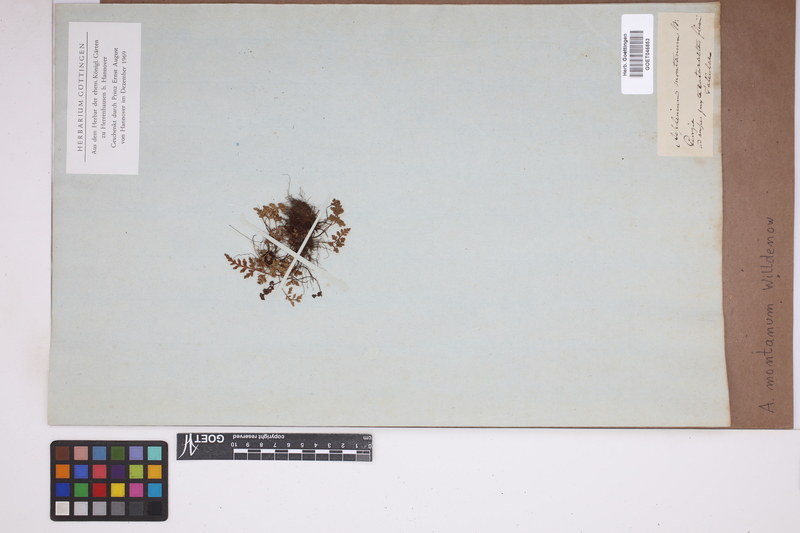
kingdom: Plantae
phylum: Tracheophyta
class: Polypodiopsida
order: Polypodiales
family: Aspleniaceae
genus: Asplenium
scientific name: Asplenium montanum
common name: Mountain spleenwort
